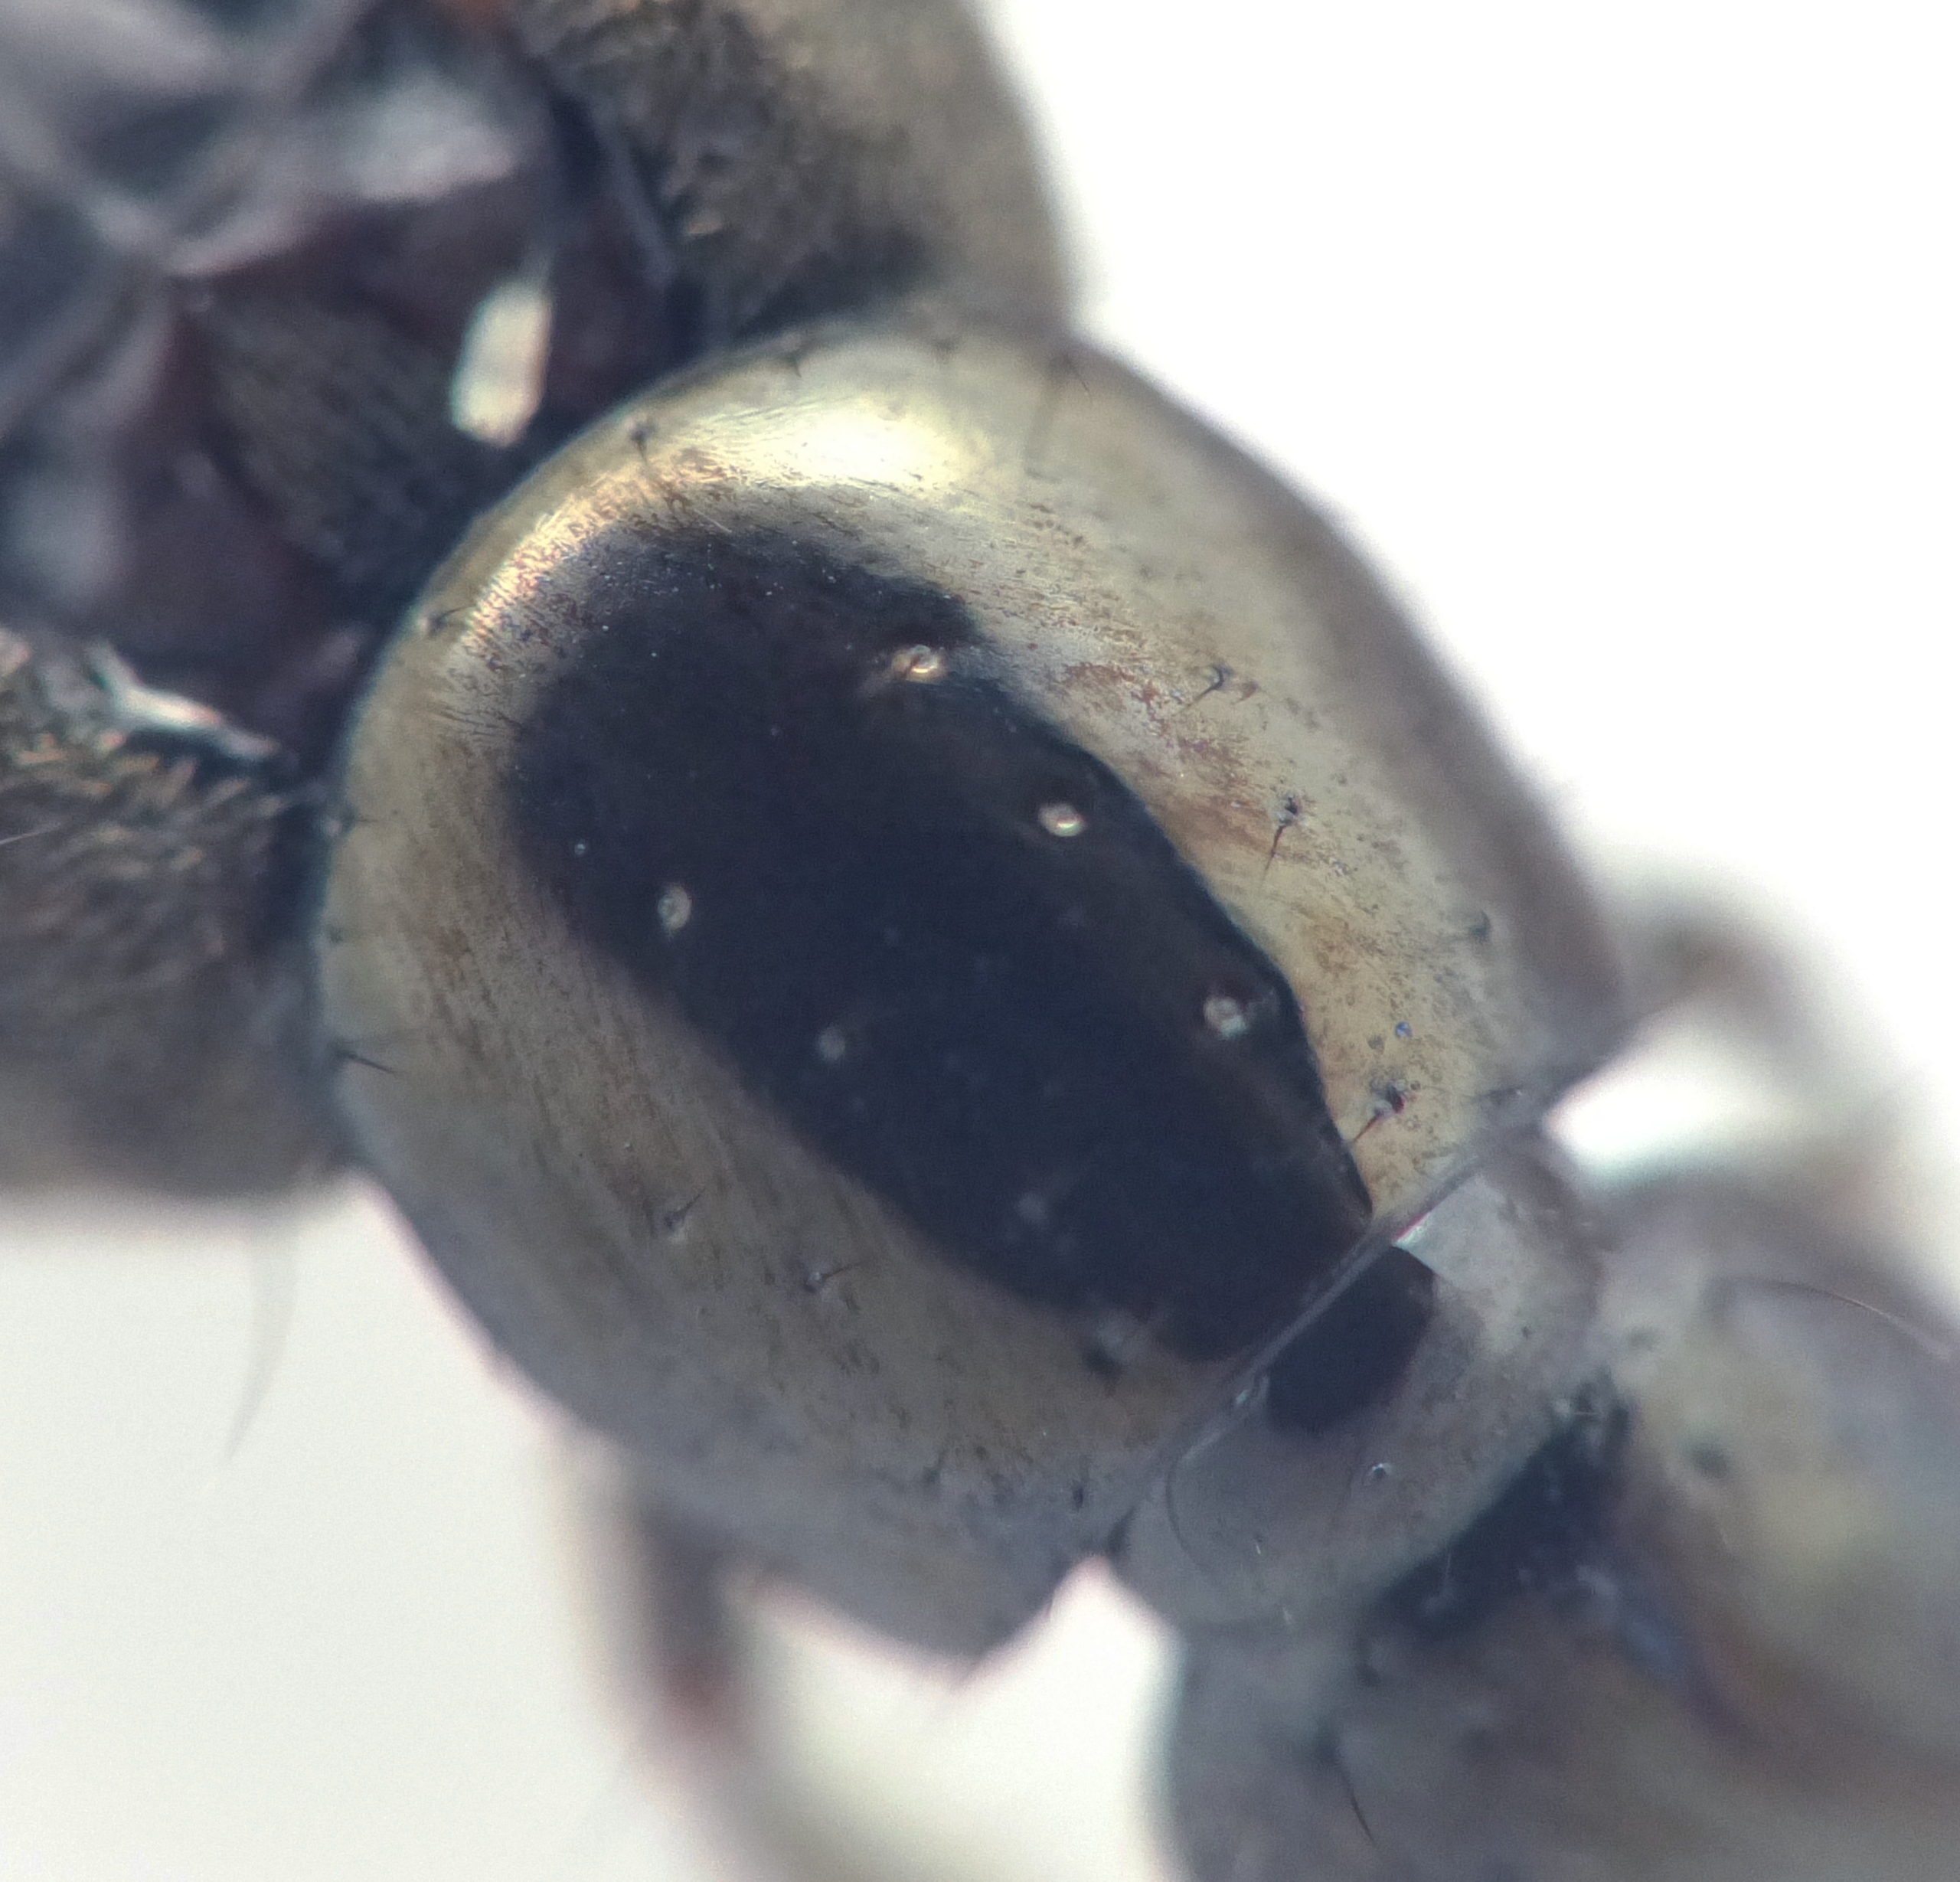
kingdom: Animalia
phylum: Arthropoda
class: Insecta
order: Coleoptera
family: Staphylinidae
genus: Philonthus
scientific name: Philonthus atratus
